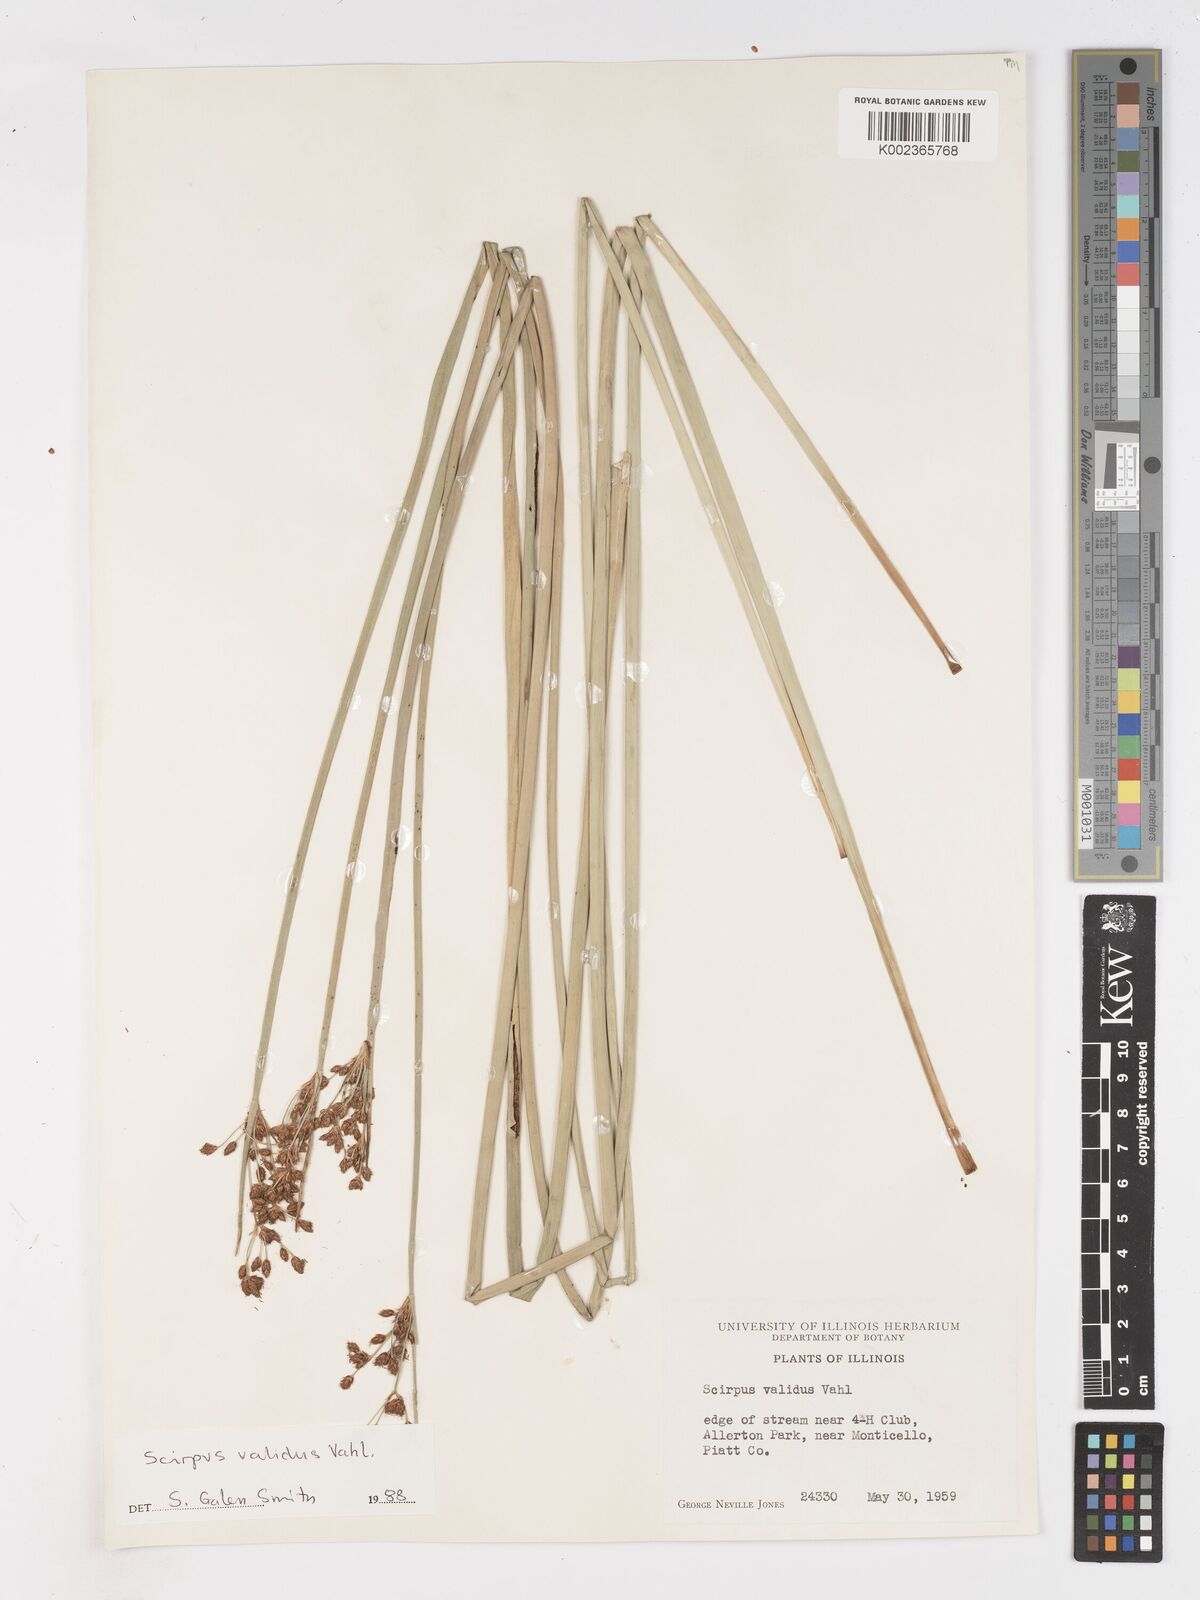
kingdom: Plantae
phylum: Tracheophyta
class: Liliopsida
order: Poales
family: Cyperaceae
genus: Schoenoplectus
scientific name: Schoenoplectus tabernaemontani
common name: Grey club-rush
